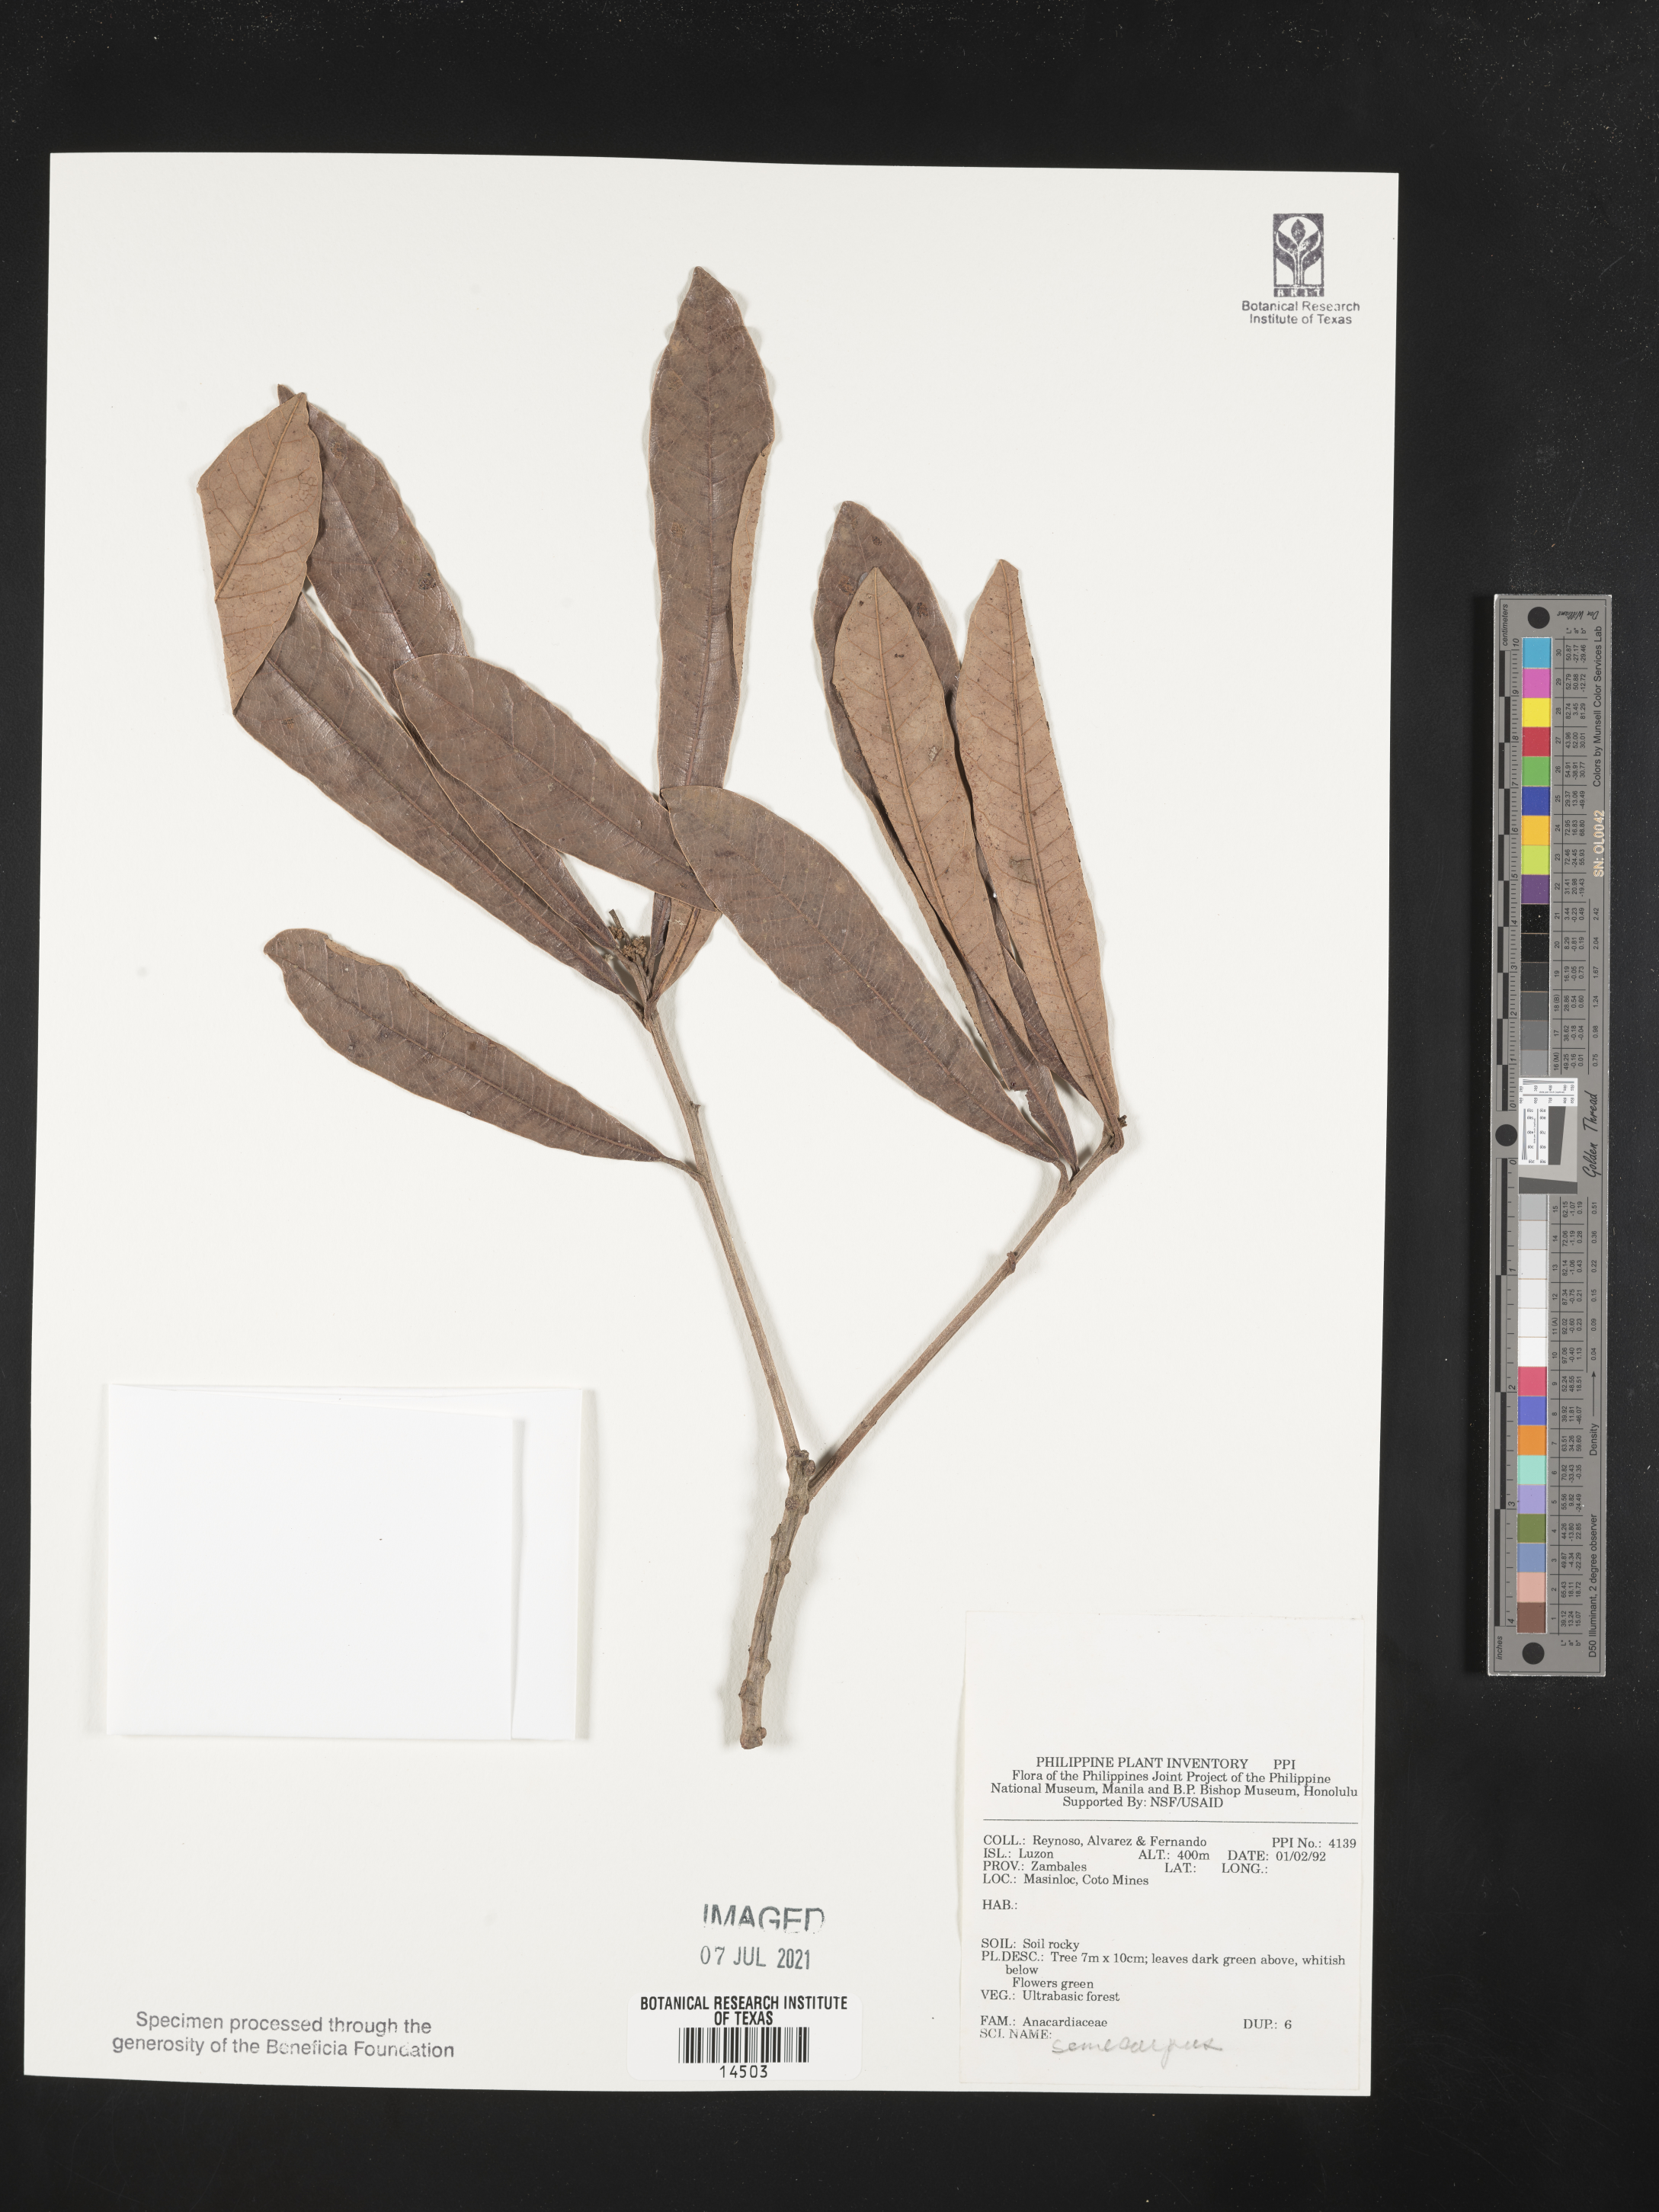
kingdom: Plantae
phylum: Tracheophyta
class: Magnoliopsida
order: Sapindales
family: Anacardiaceae
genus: Semecarpus
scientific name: Semecarpus
